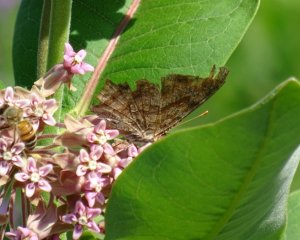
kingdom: Animalia
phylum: Arthropoda
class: Insecta
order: Lepidoptera
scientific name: Lepidoptera
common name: Butterflies
